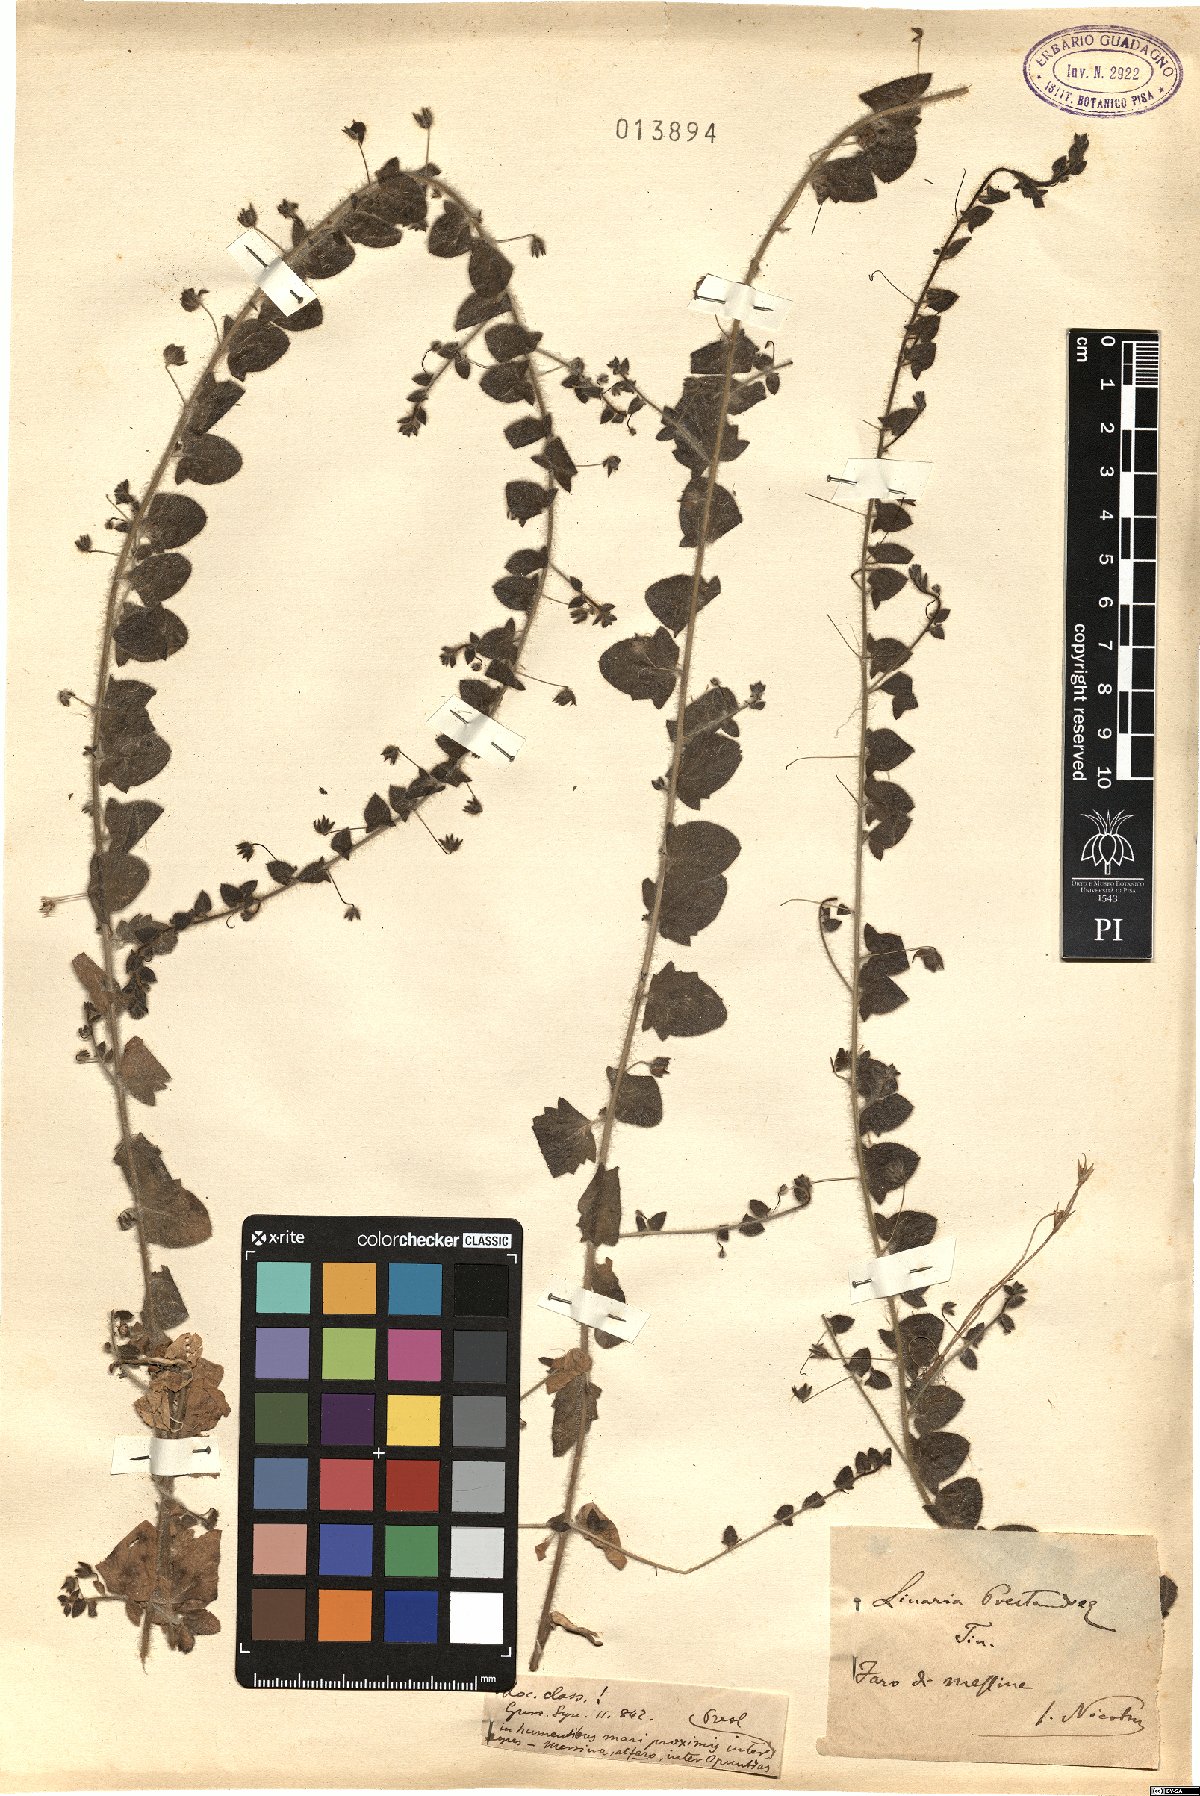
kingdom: Plantae
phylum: Tracheophyta
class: Magnoliopsida
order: Lamiales
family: Plantaginaceae
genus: Kickxia
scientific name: Kickxia elatine
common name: Sharp-leaved fluellen
